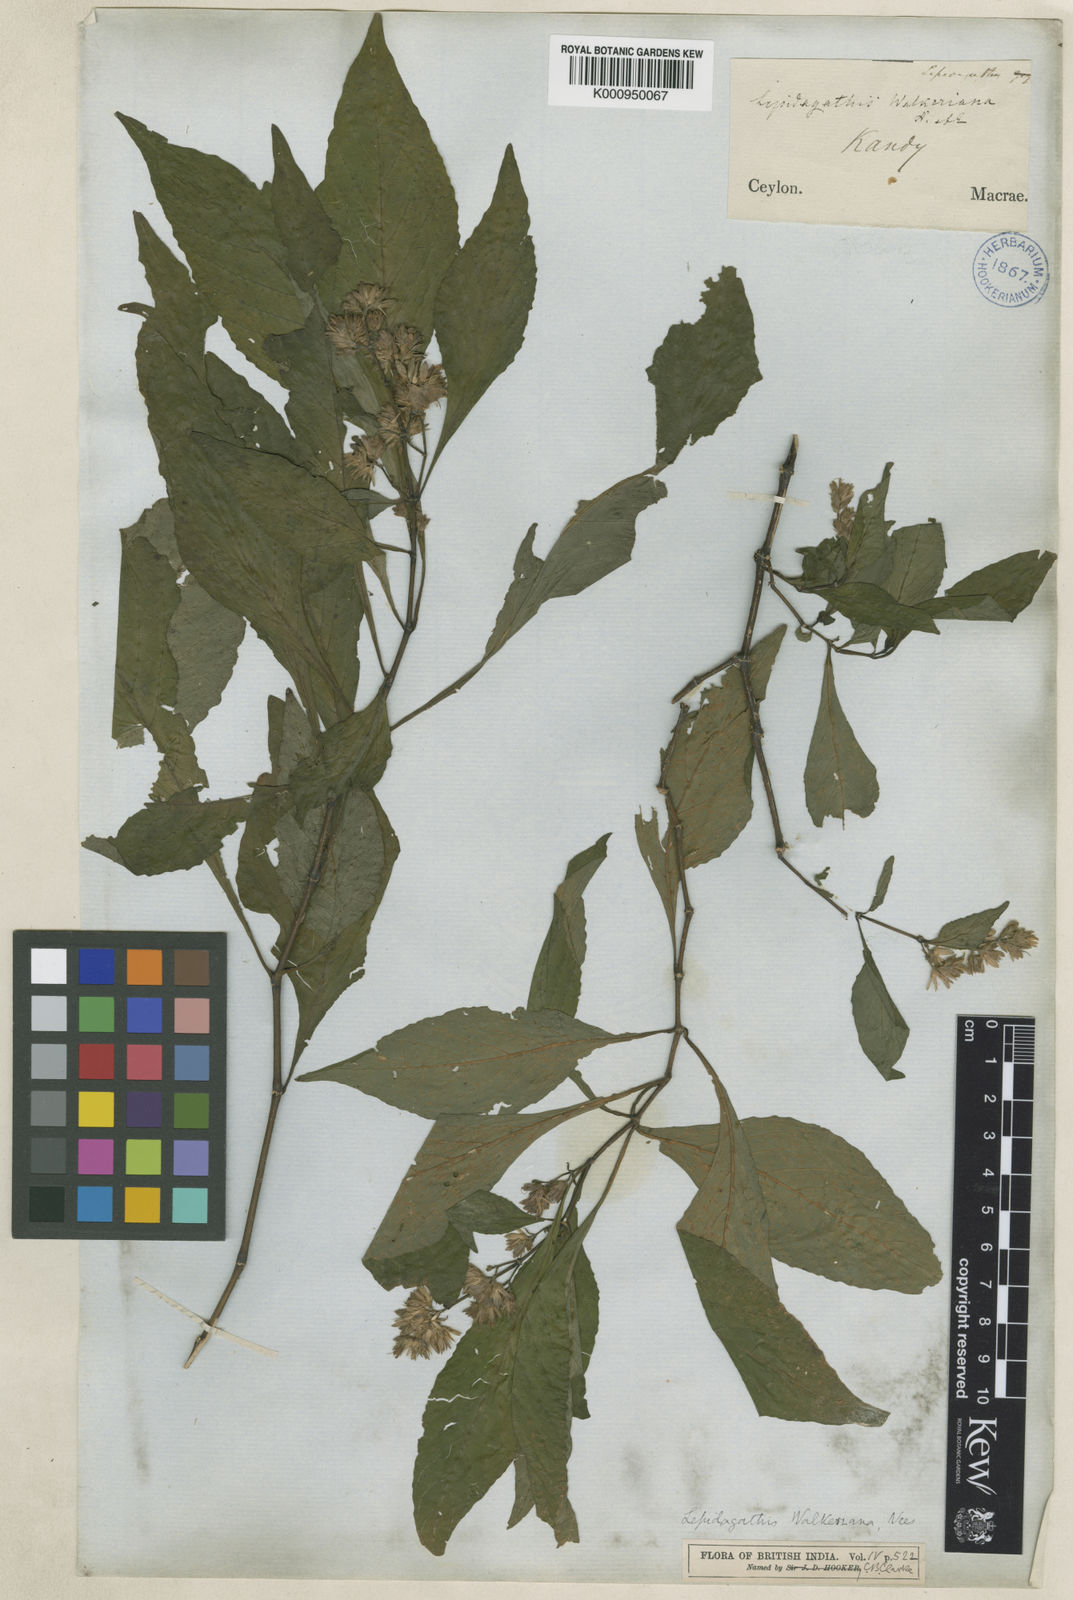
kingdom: Plantae
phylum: Tracheophyta
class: Magnoliopsida
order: Lamiales
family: Acanthaceae
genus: Lepidagathis
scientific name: Lepidagathis walkeriana
